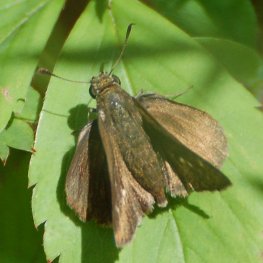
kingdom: Animalia
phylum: Arthropoda
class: Insecta
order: Lepidoptera
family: Hesperiidae
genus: Euphyes
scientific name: Euphyes vestris
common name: Dun Skipper
